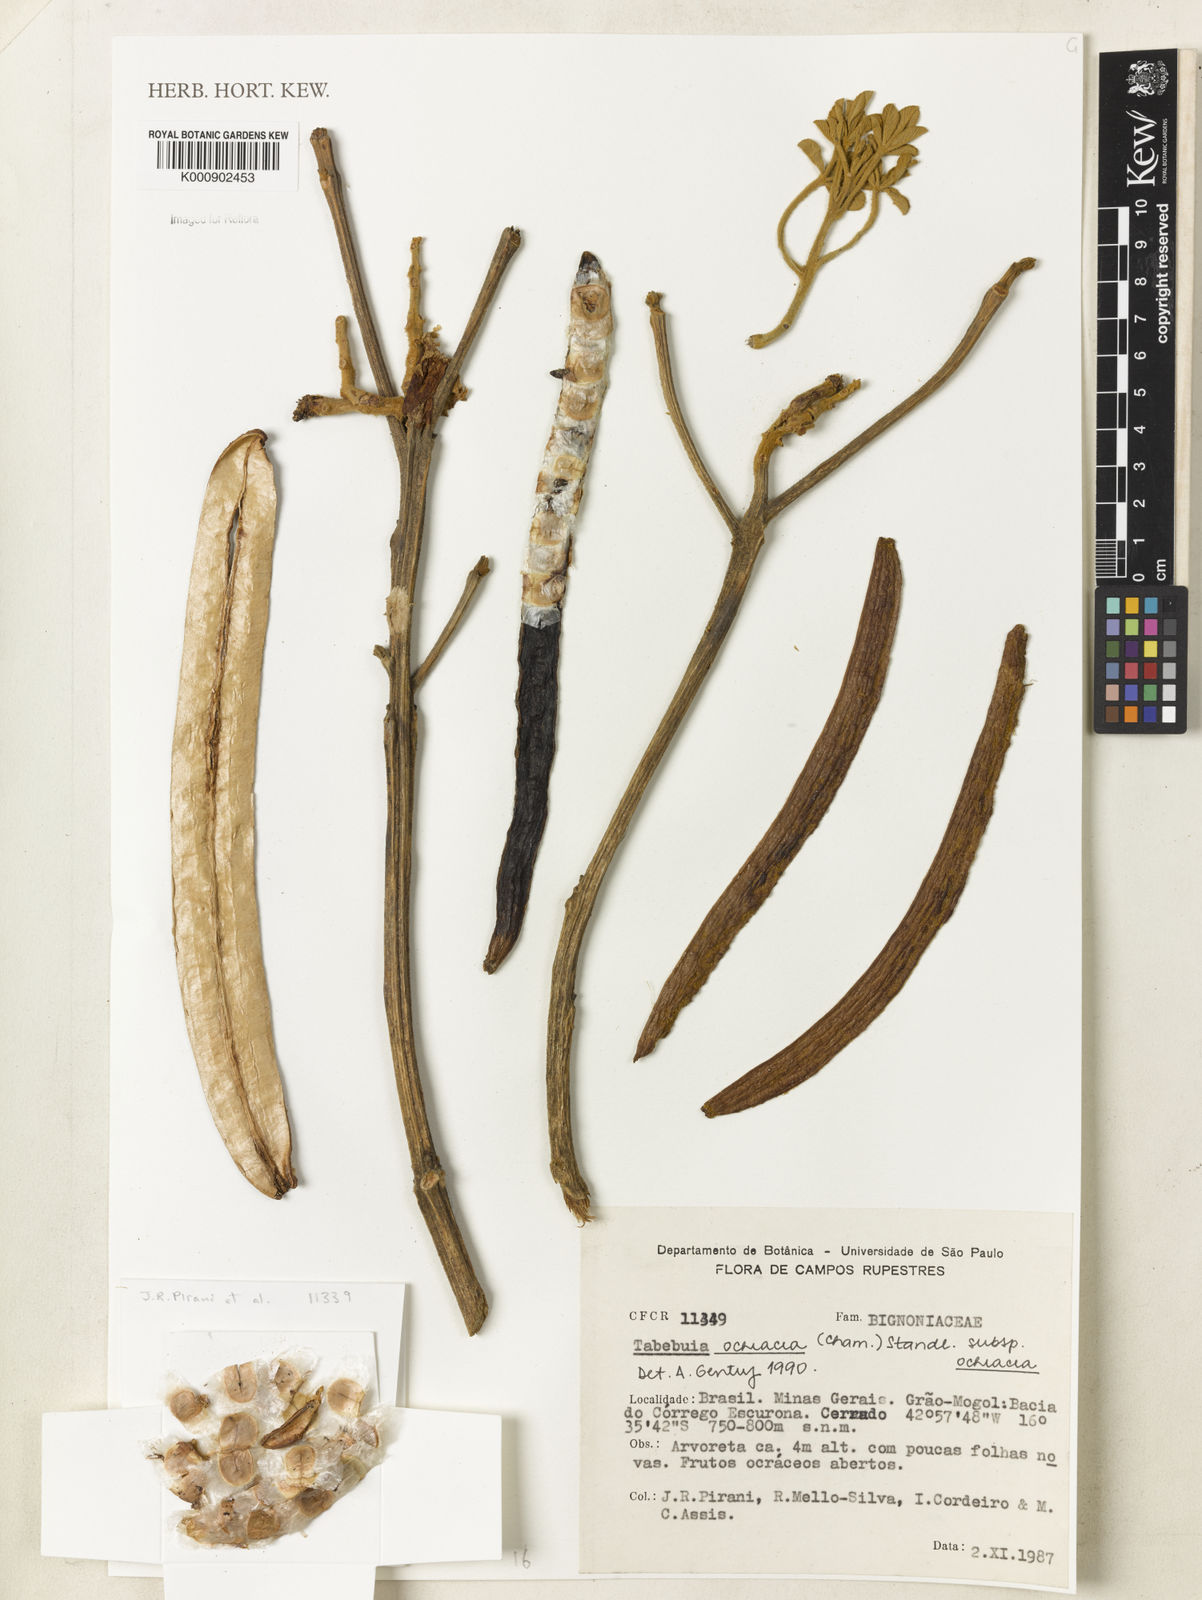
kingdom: Plantae
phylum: Tracheophyta
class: Magnoliopsida
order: Lamiales
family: Bignoniaceae
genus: Handroanthus
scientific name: Handroanthus ochraceus
